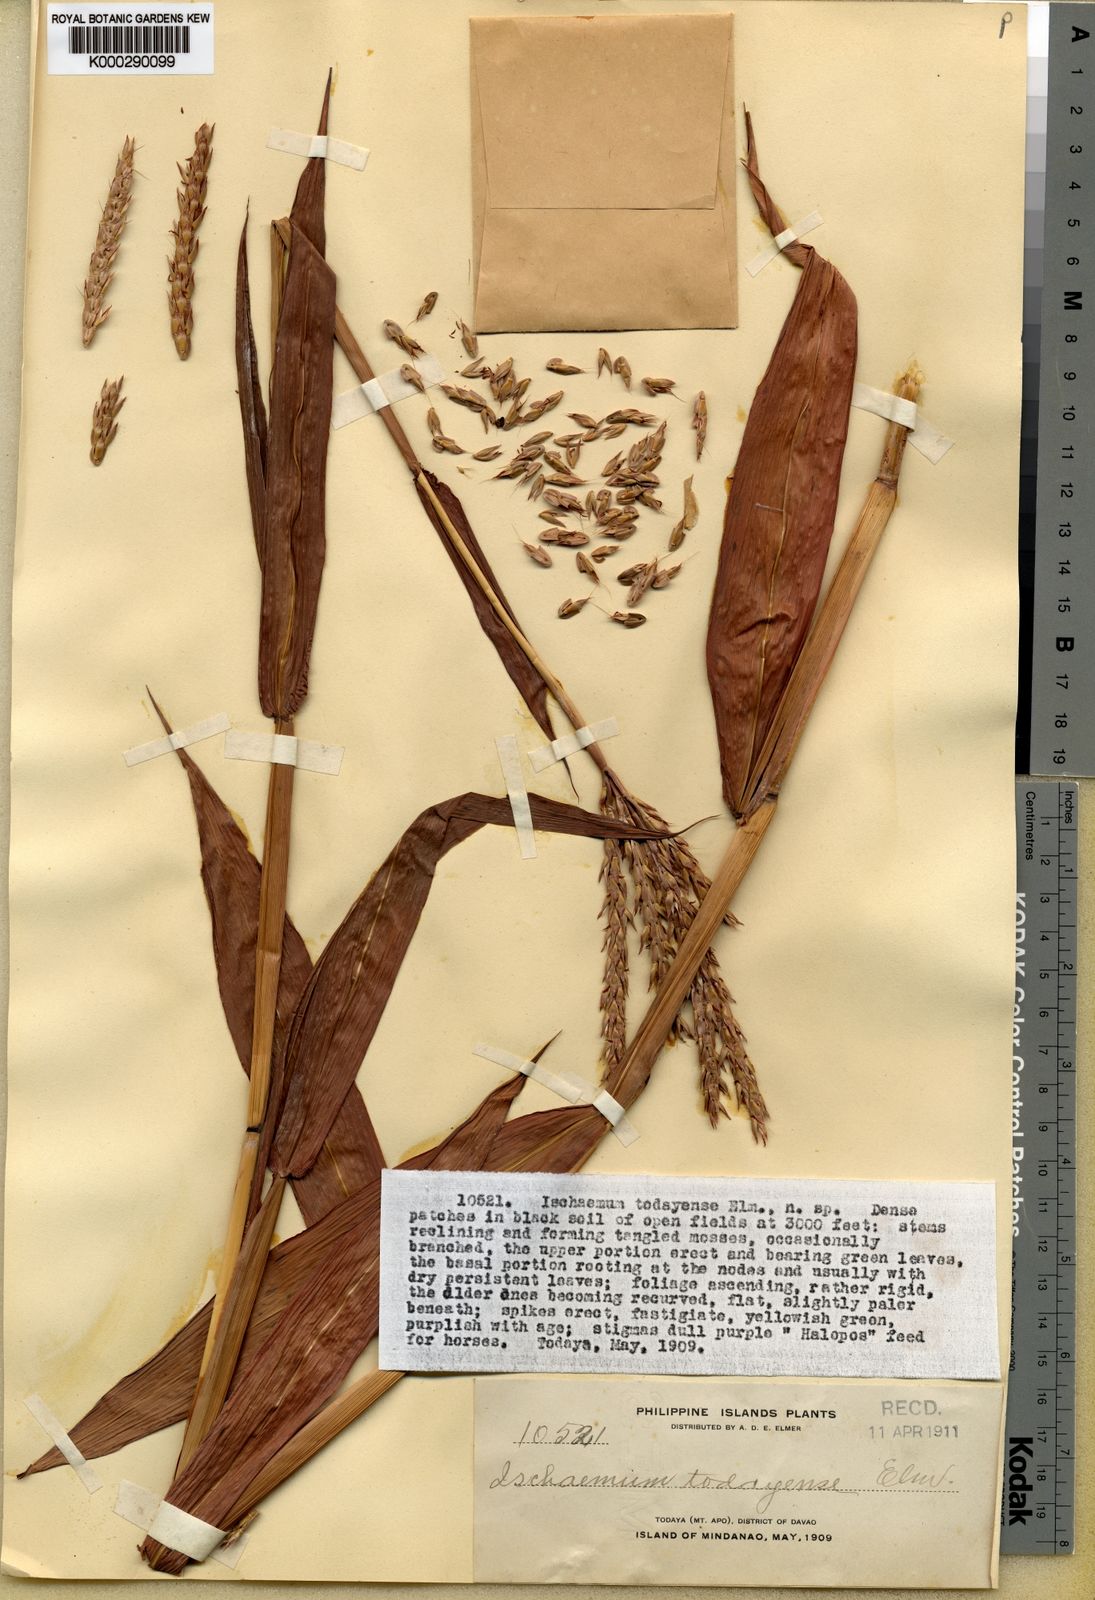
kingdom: Plantae
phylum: Tracheophyta
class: Liliopsida
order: Poales
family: Poaceae
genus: Ischaemum
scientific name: Ischaemum polystachyum
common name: Paddle grass
